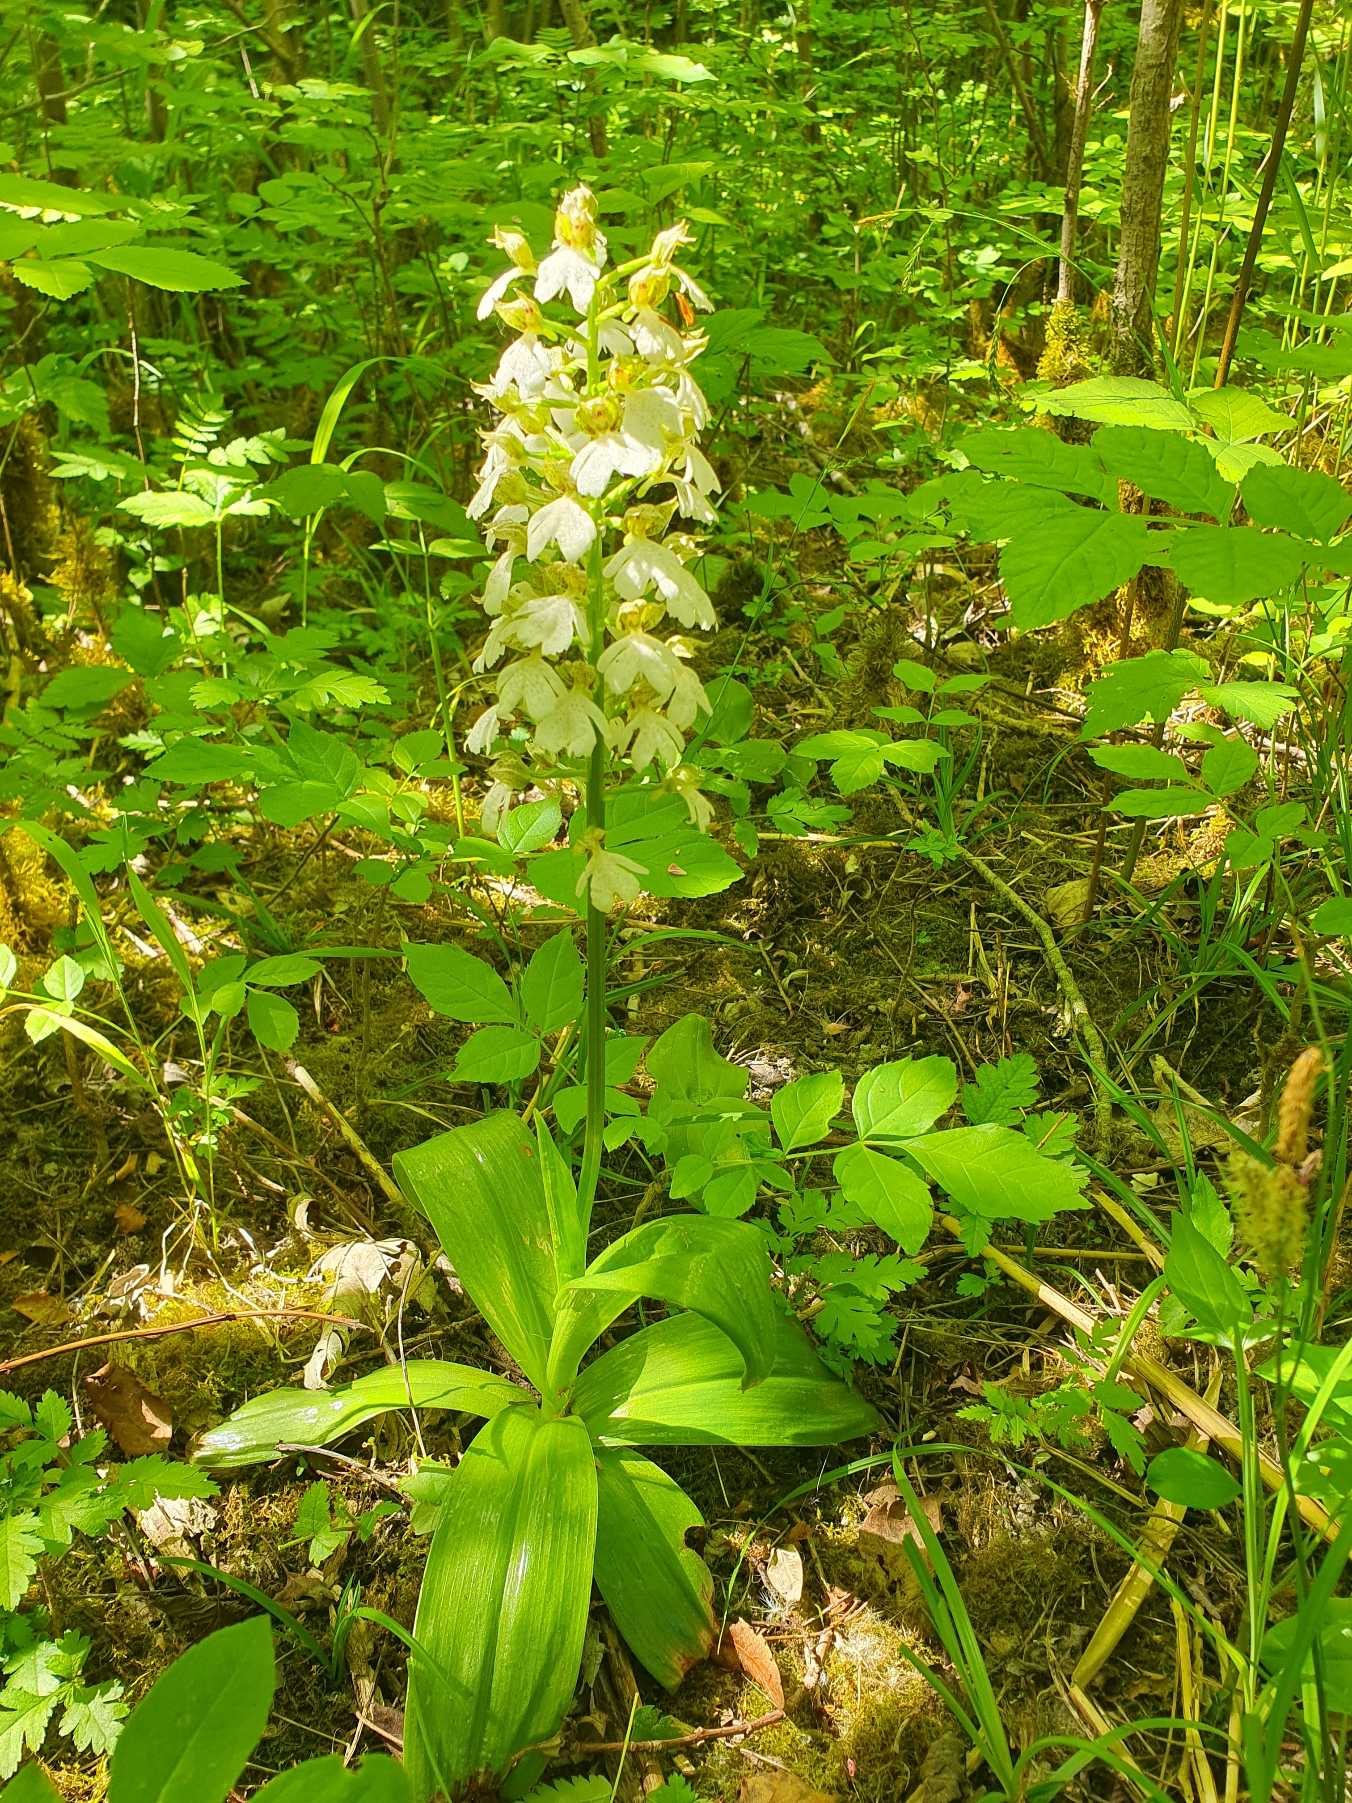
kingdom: Plantae
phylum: Tracheophyta
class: Liliopsida
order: Asparagales
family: Orchidaceae
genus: Orchis
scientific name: Orchis purpurea
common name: Stor gøgeurt
